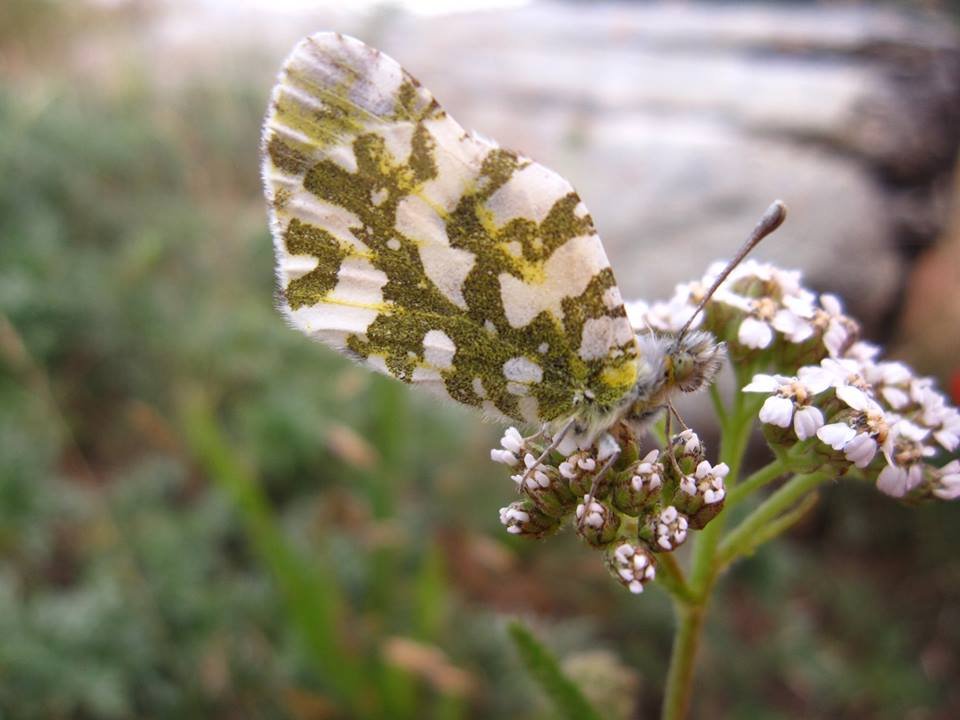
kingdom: Animalia
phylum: Arthropoda
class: Insecta
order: Lepidoptera
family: Pieridae
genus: Euchloe
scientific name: Euchloe ausonides
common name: Large Marble
